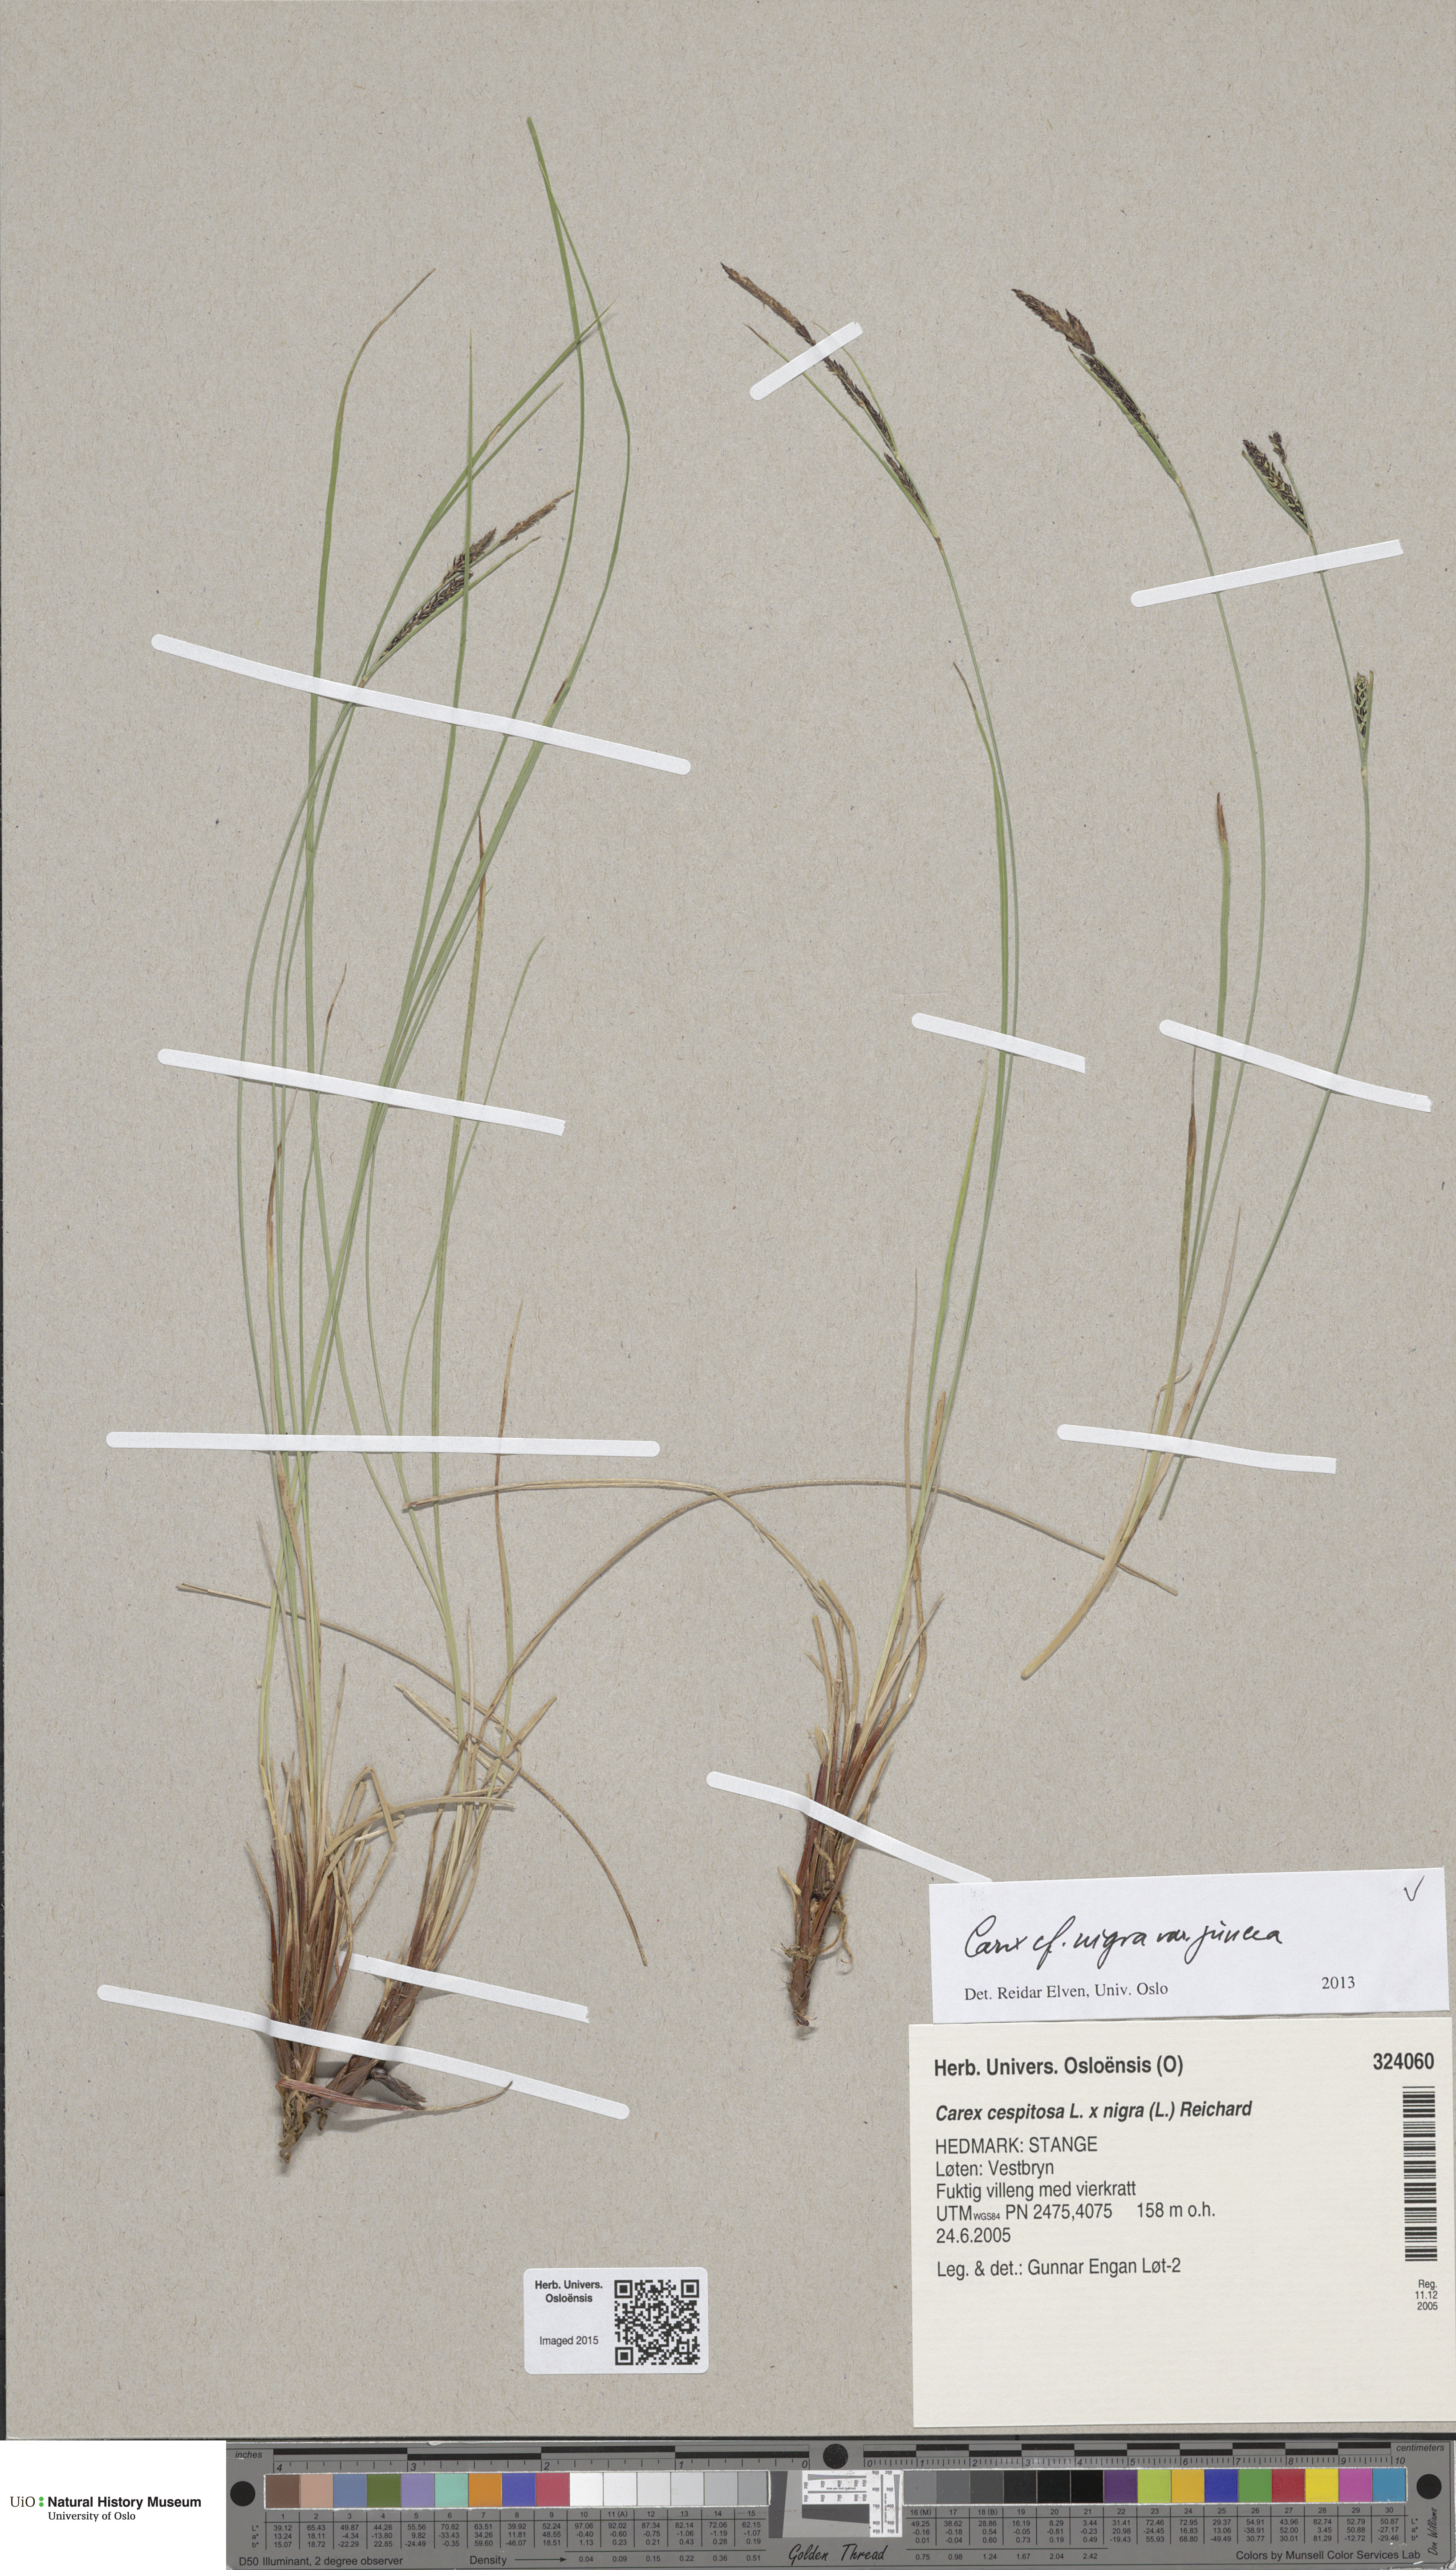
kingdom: Plantae
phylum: Tracheophyta
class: Liliopsida
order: Poales
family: Cyperaceae
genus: Carex
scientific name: Carex nigra
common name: Common sedge
